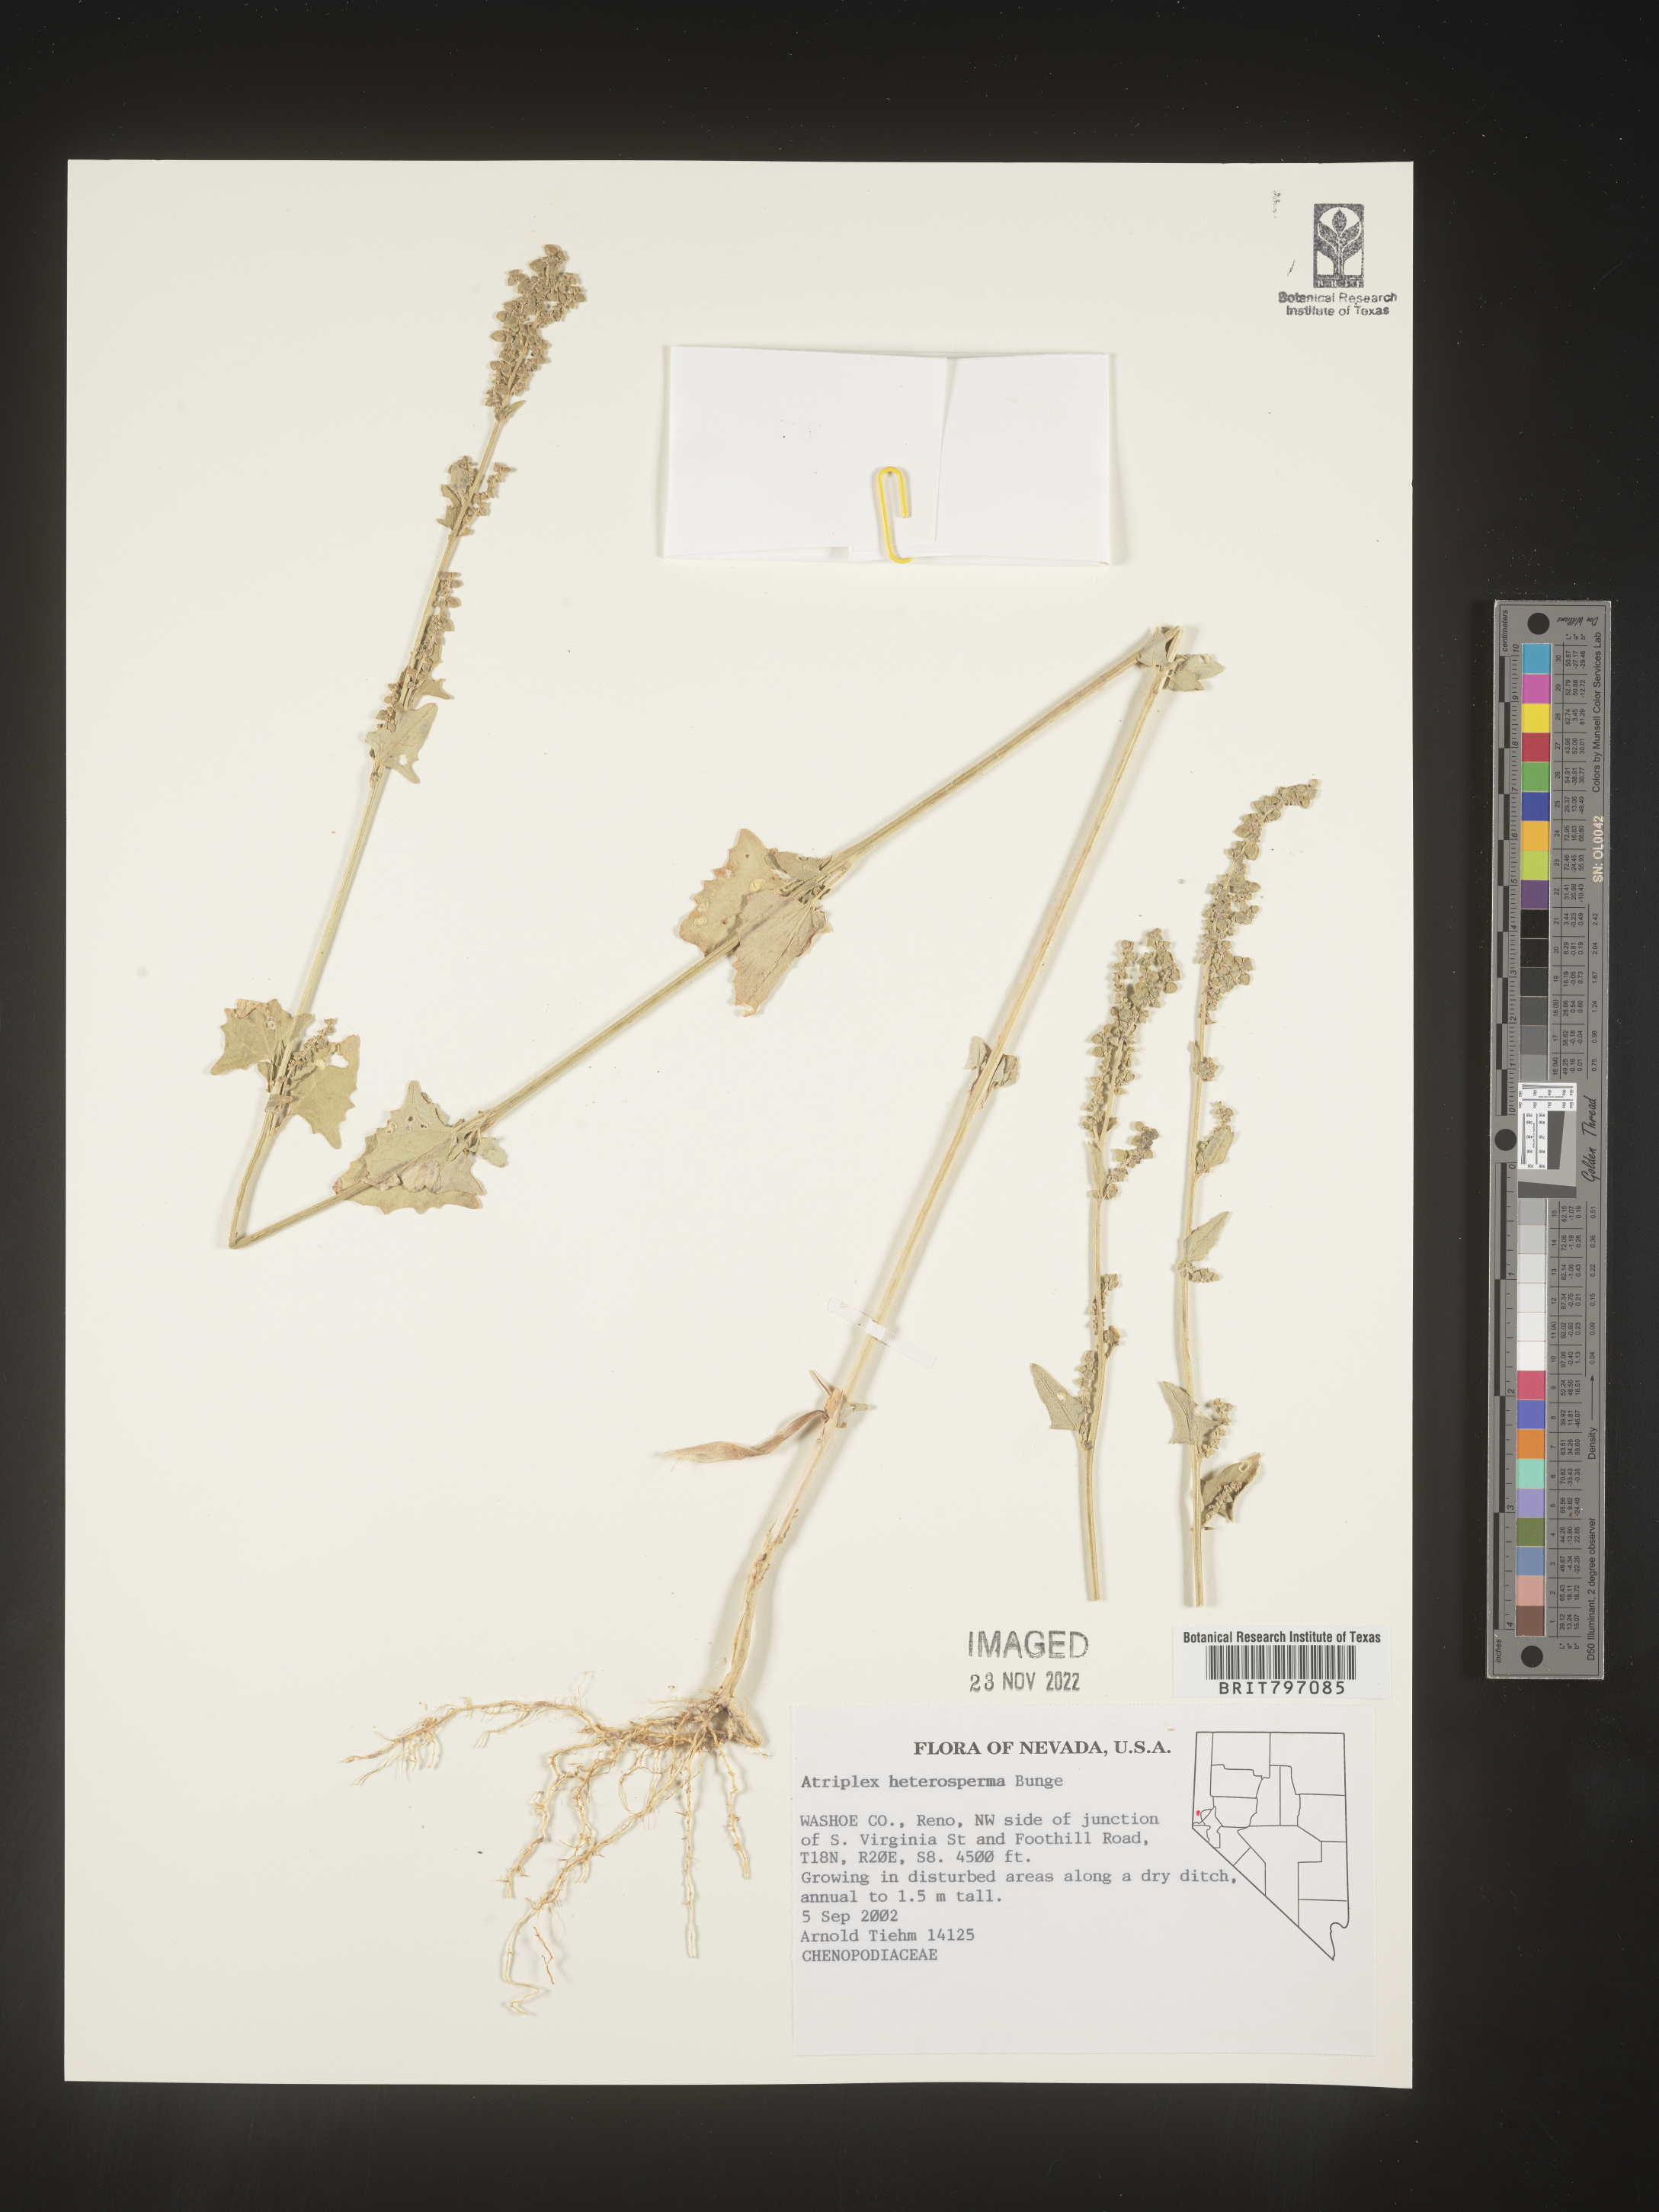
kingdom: Plantae
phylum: Tracheophyta
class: Magnoliopsida
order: Caryophyllales
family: Amaranthaceae
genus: Atriplex
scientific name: Atriplex
